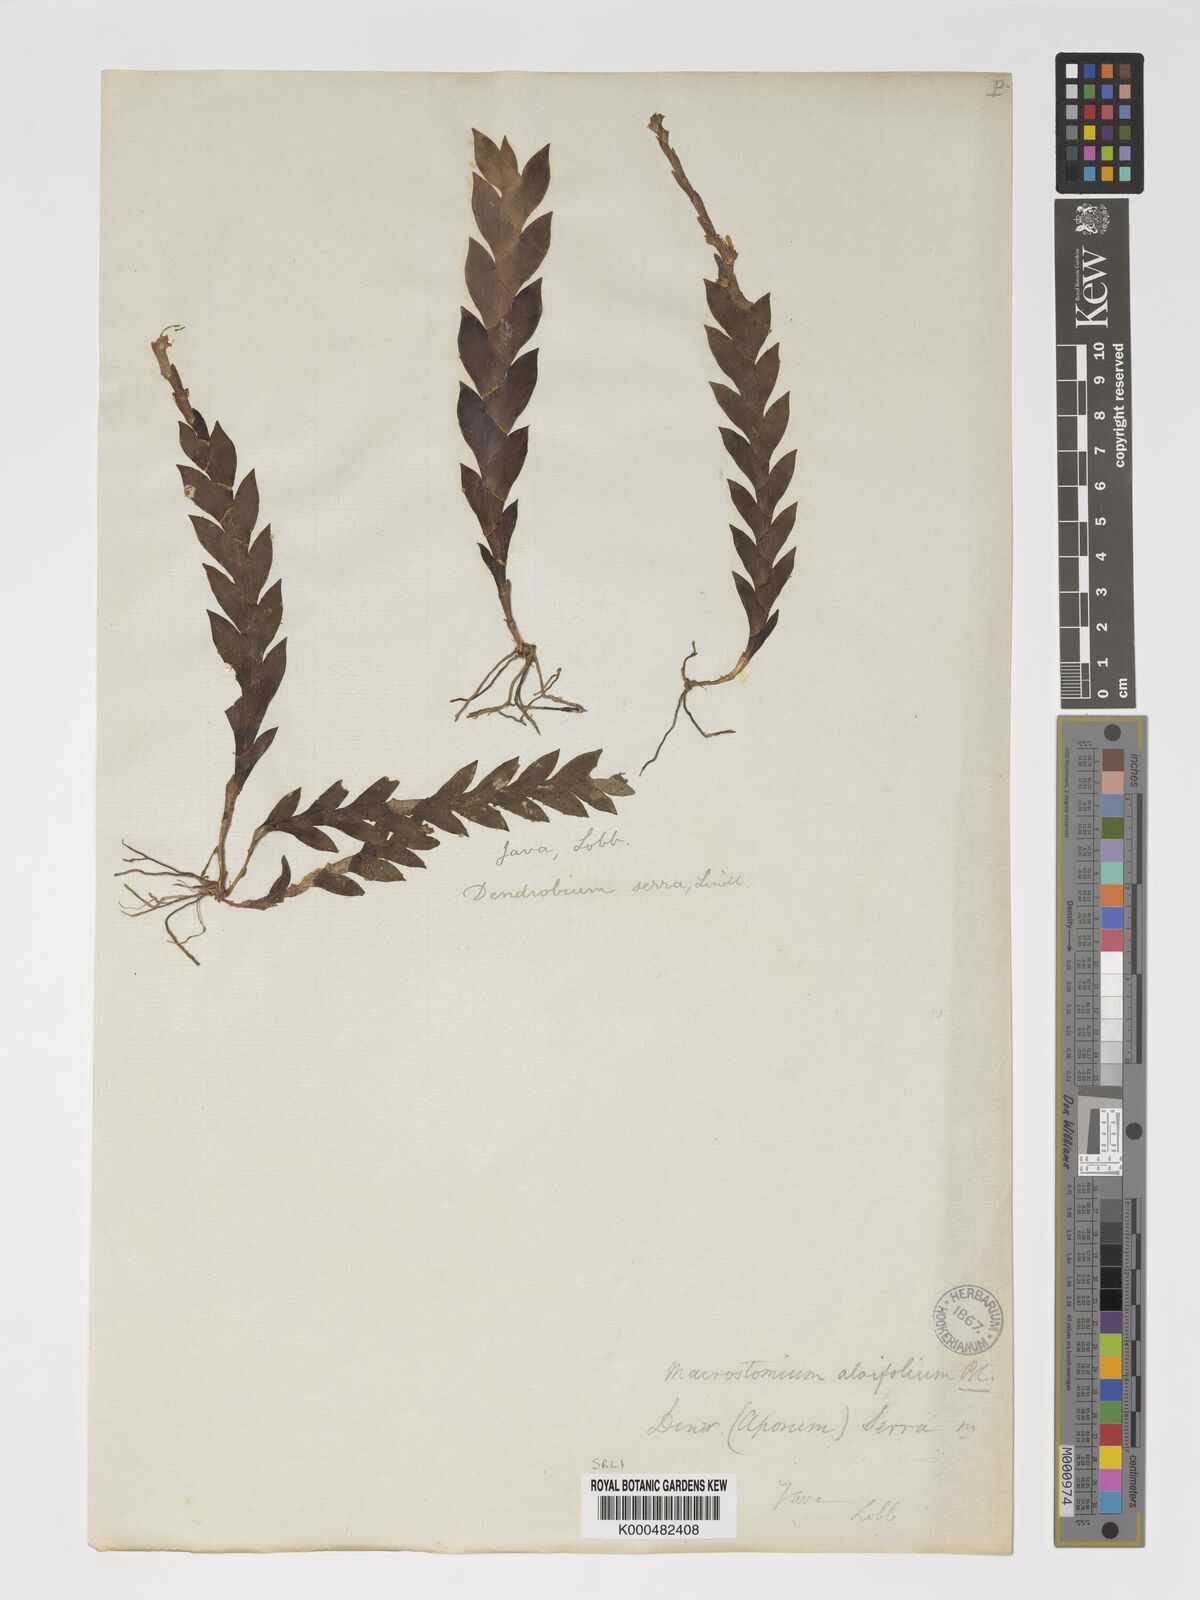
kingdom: Plantae
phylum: Tracheophyta
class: Liliopsida
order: Asparagales
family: Orchidaceae
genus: Dendrobium
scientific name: Dendrobium aloifolium
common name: Aloe-like dendrobium
